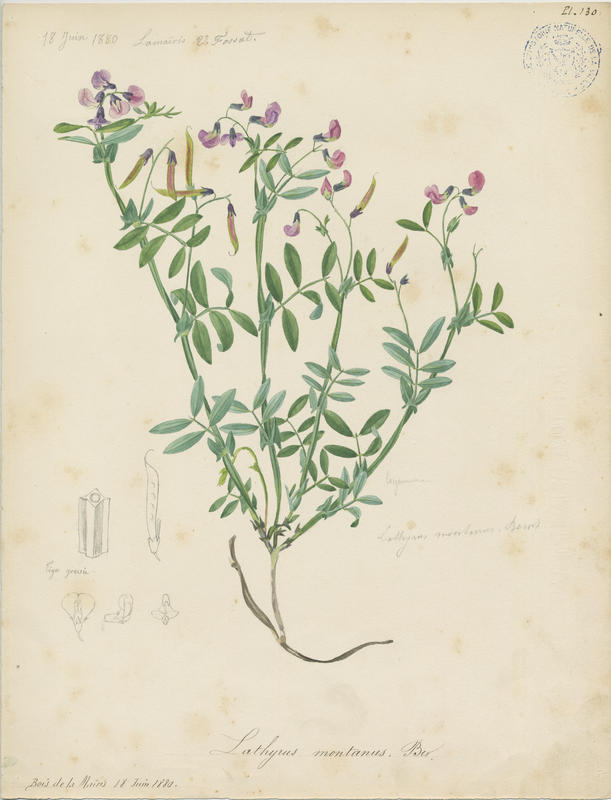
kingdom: Plantae
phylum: Tracheophyta
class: Magnoliopsida
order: Fabales
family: Fabaceae
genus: Lathyrus
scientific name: Lathyrus linifolius
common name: Bitter-vetch
